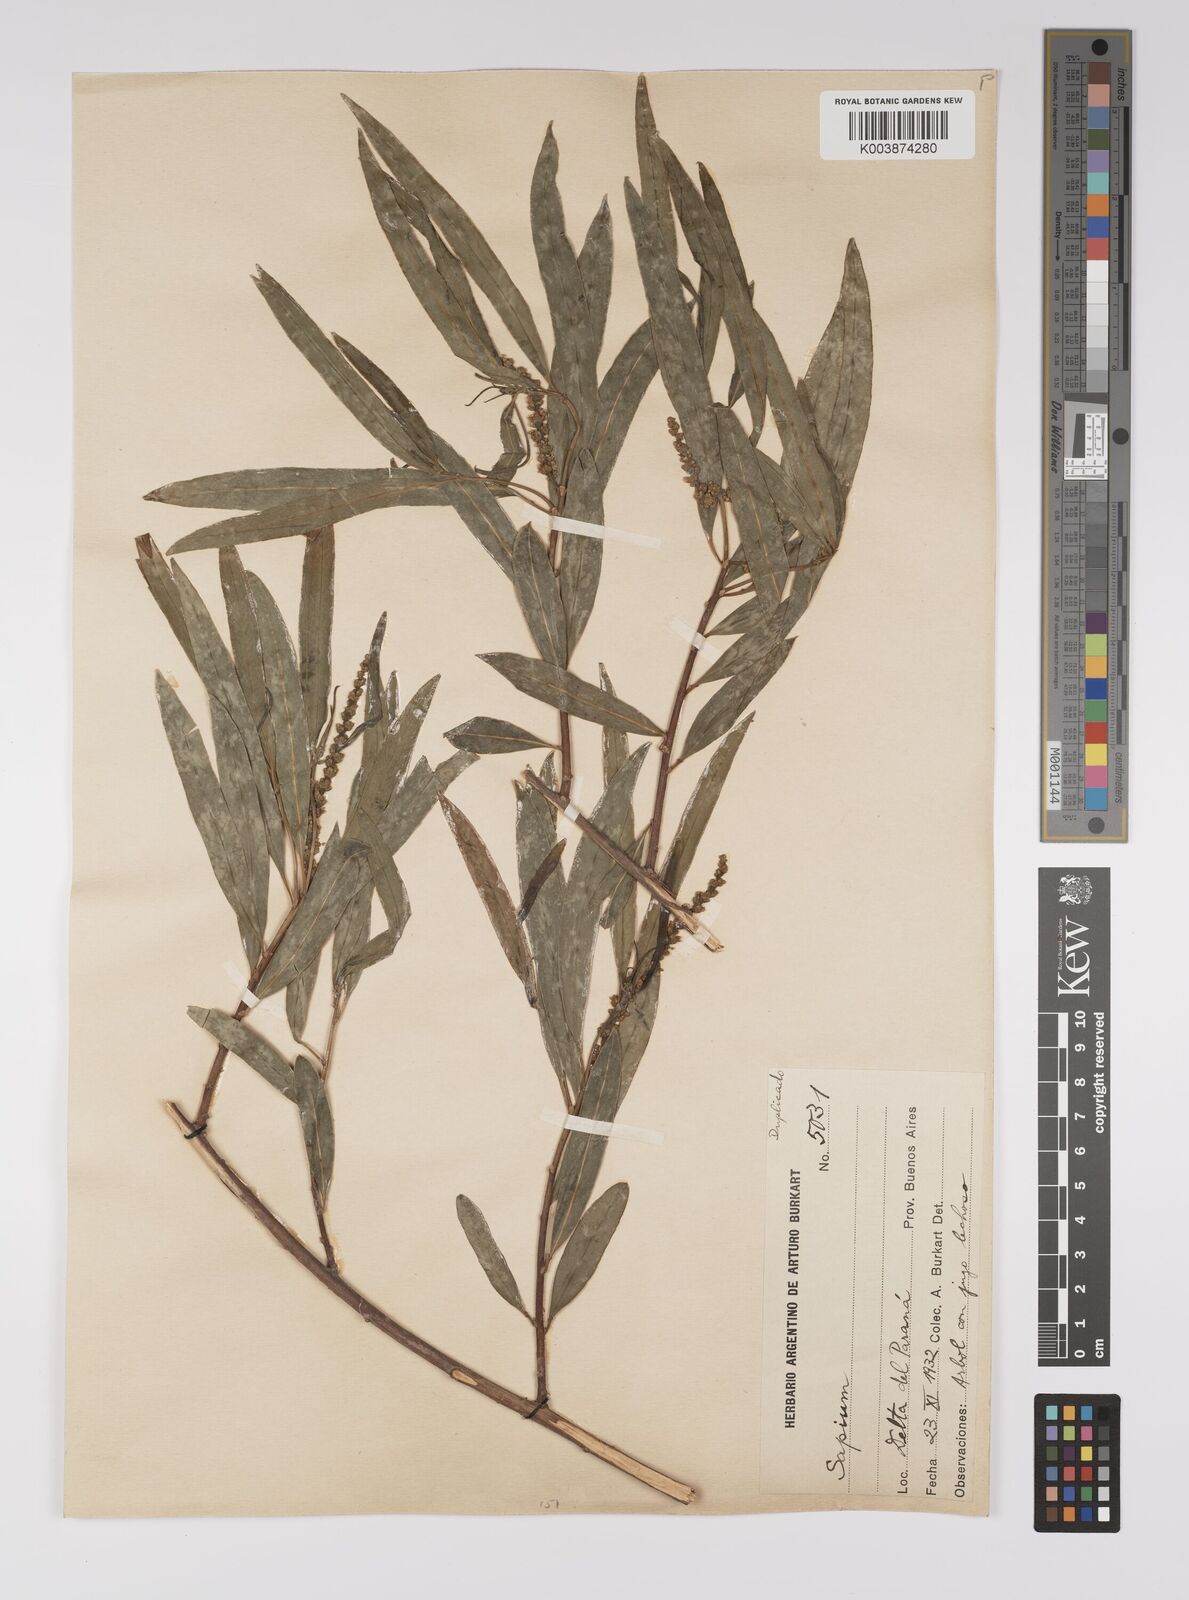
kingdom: Plantae
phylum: Tracheophyta
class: Magnoliopsida
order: Malpighiales
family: Euphorbiaceae
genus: Sapium
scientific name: Sapium haematospermum
